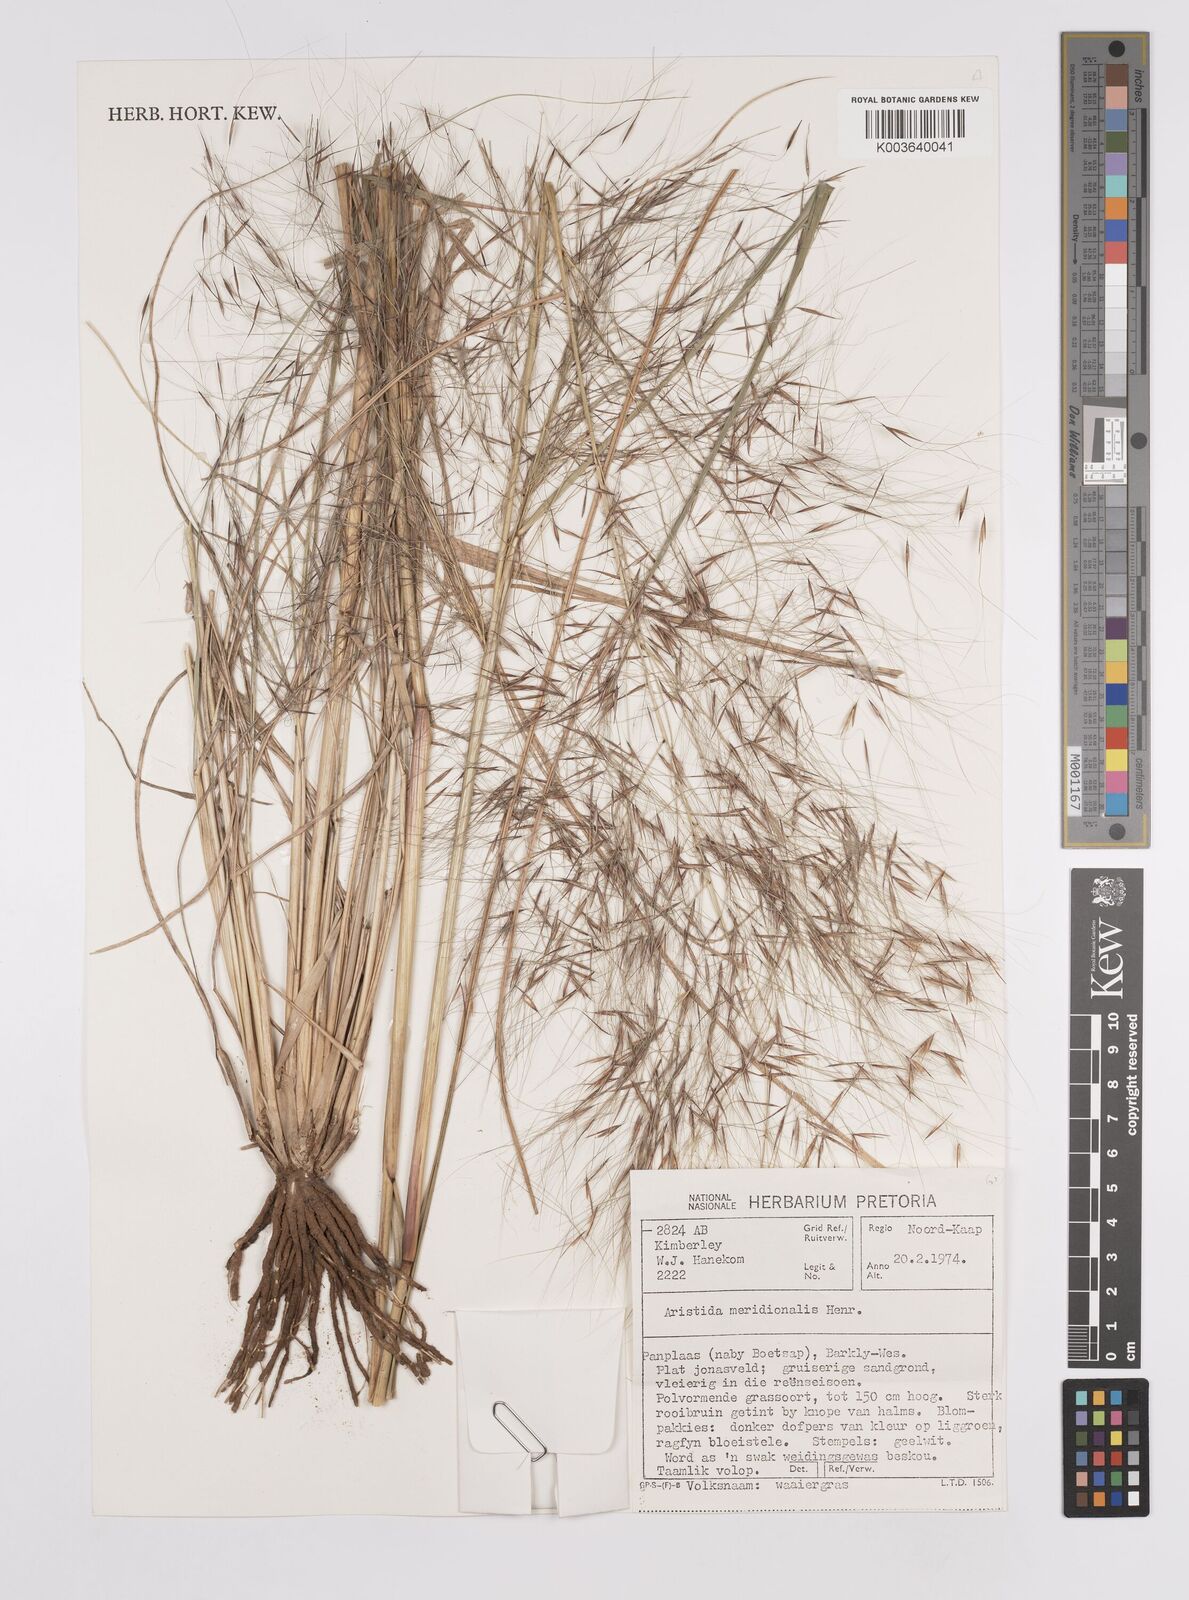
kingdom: Plantae
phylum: Tracheophyta
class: Liliopsida
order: Poales
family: Poaceae
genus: Aristida
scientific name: Aristida meridionalis
